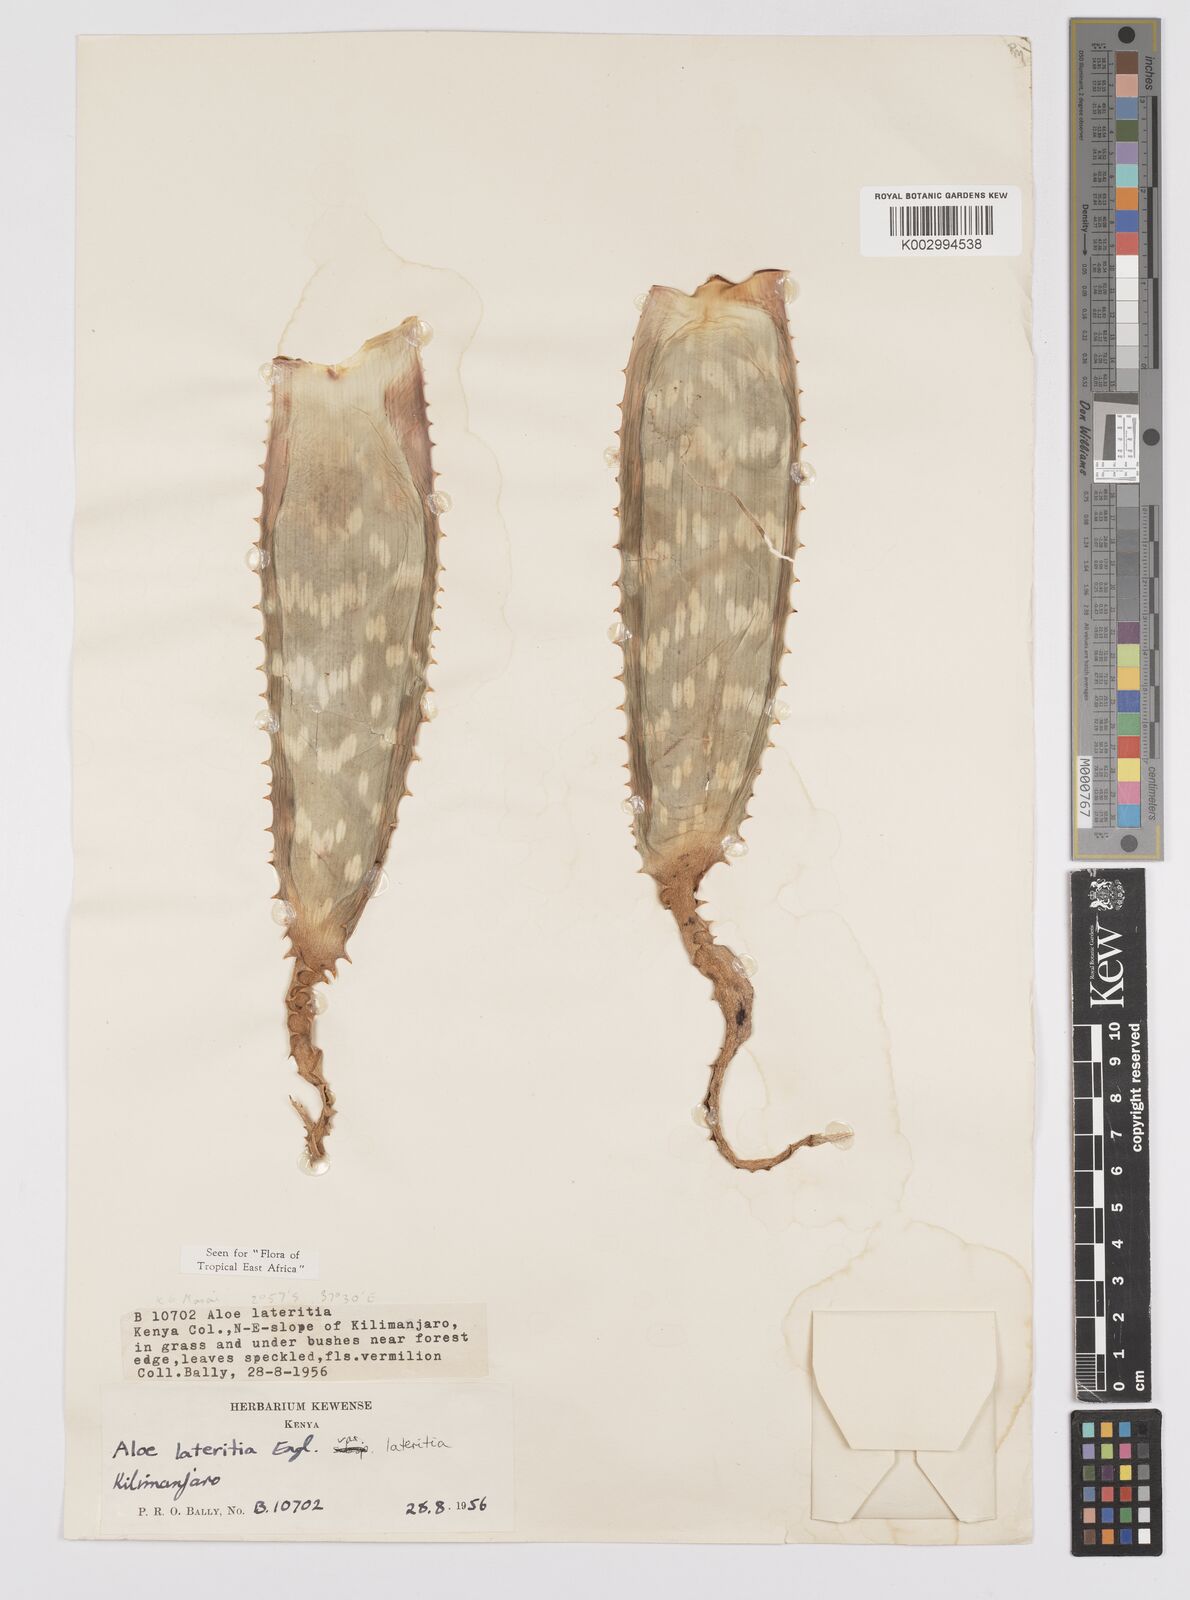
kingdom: Plantae
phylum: Tracheophyta
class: Liliopsida
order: Asparagales
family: Asphodelaceae
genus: Aloe
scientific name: Aloe lateritia
